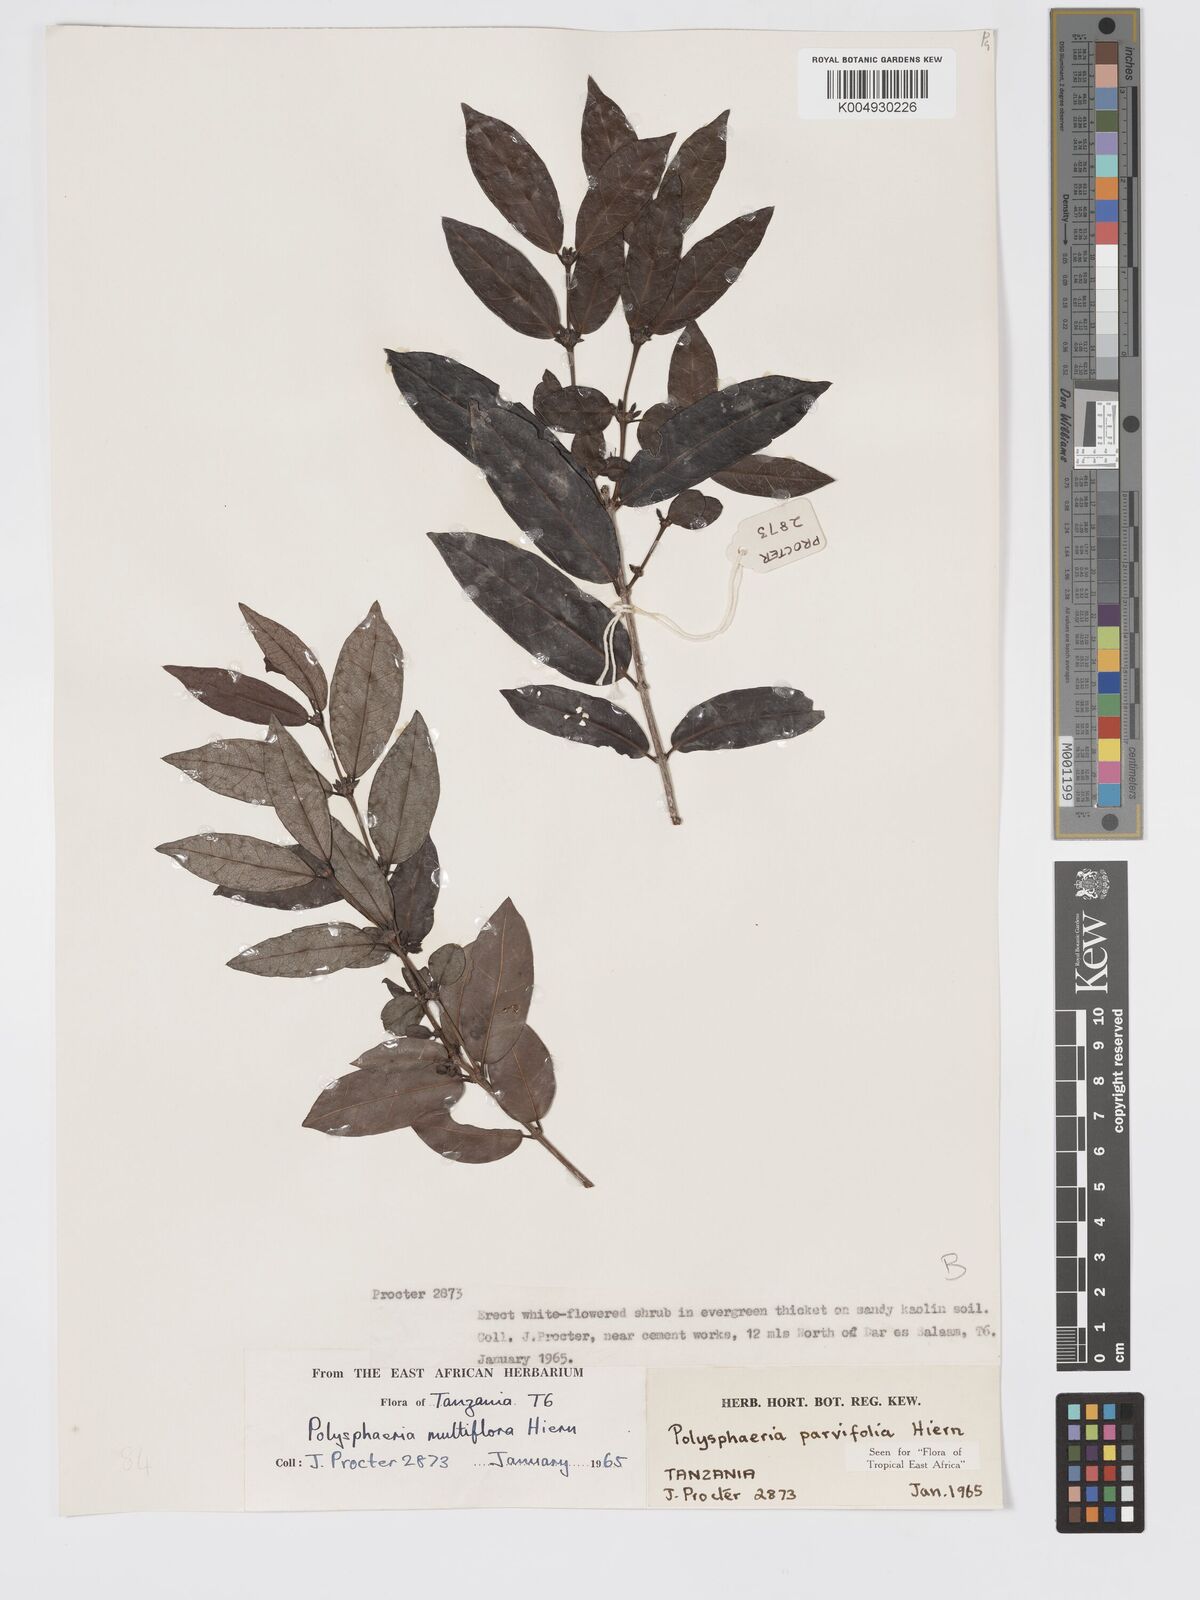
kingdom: Plantae
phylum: Tracheophyta
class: Magnoliopsida
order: Gentianales
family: Rubiaceae
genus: Polysphaeria
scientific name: Polysphaeria parvifolia
